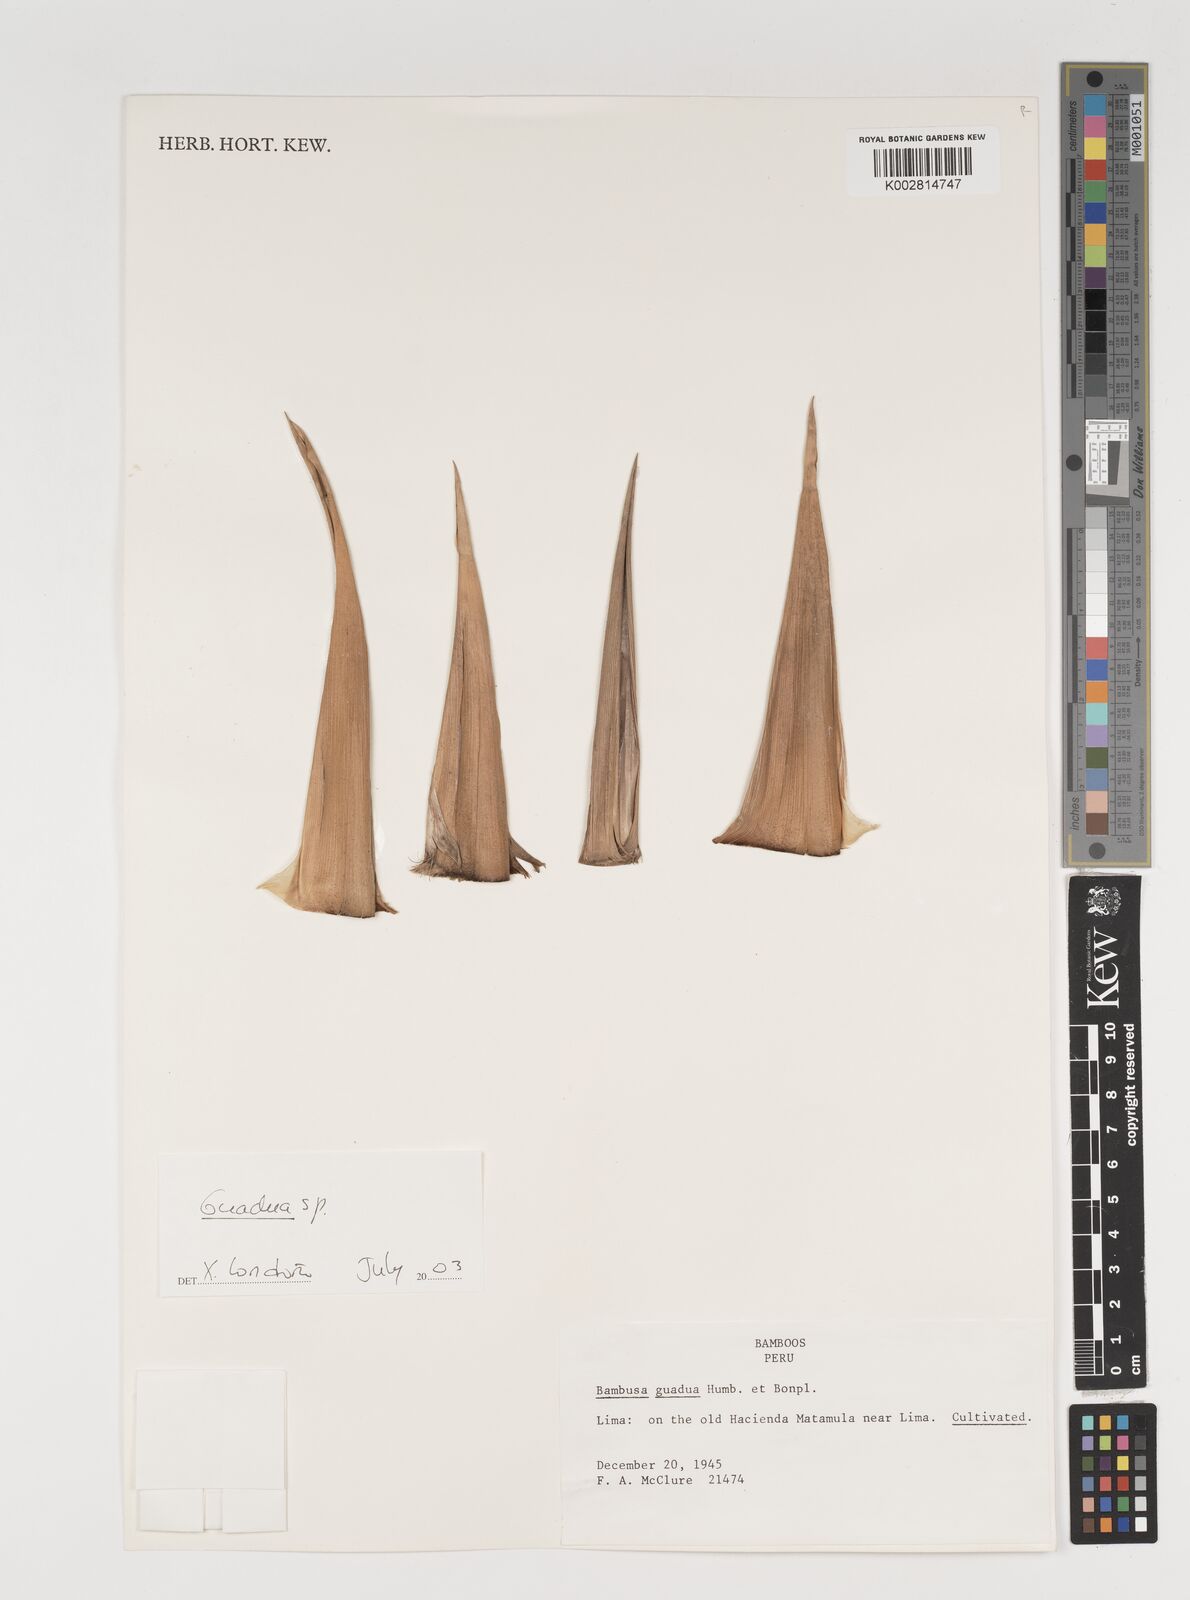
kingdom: Plantae
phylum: Tracheophyta
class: Liliopsida
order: Poales
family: Poaceae
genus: Guadua
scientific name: Guadua
